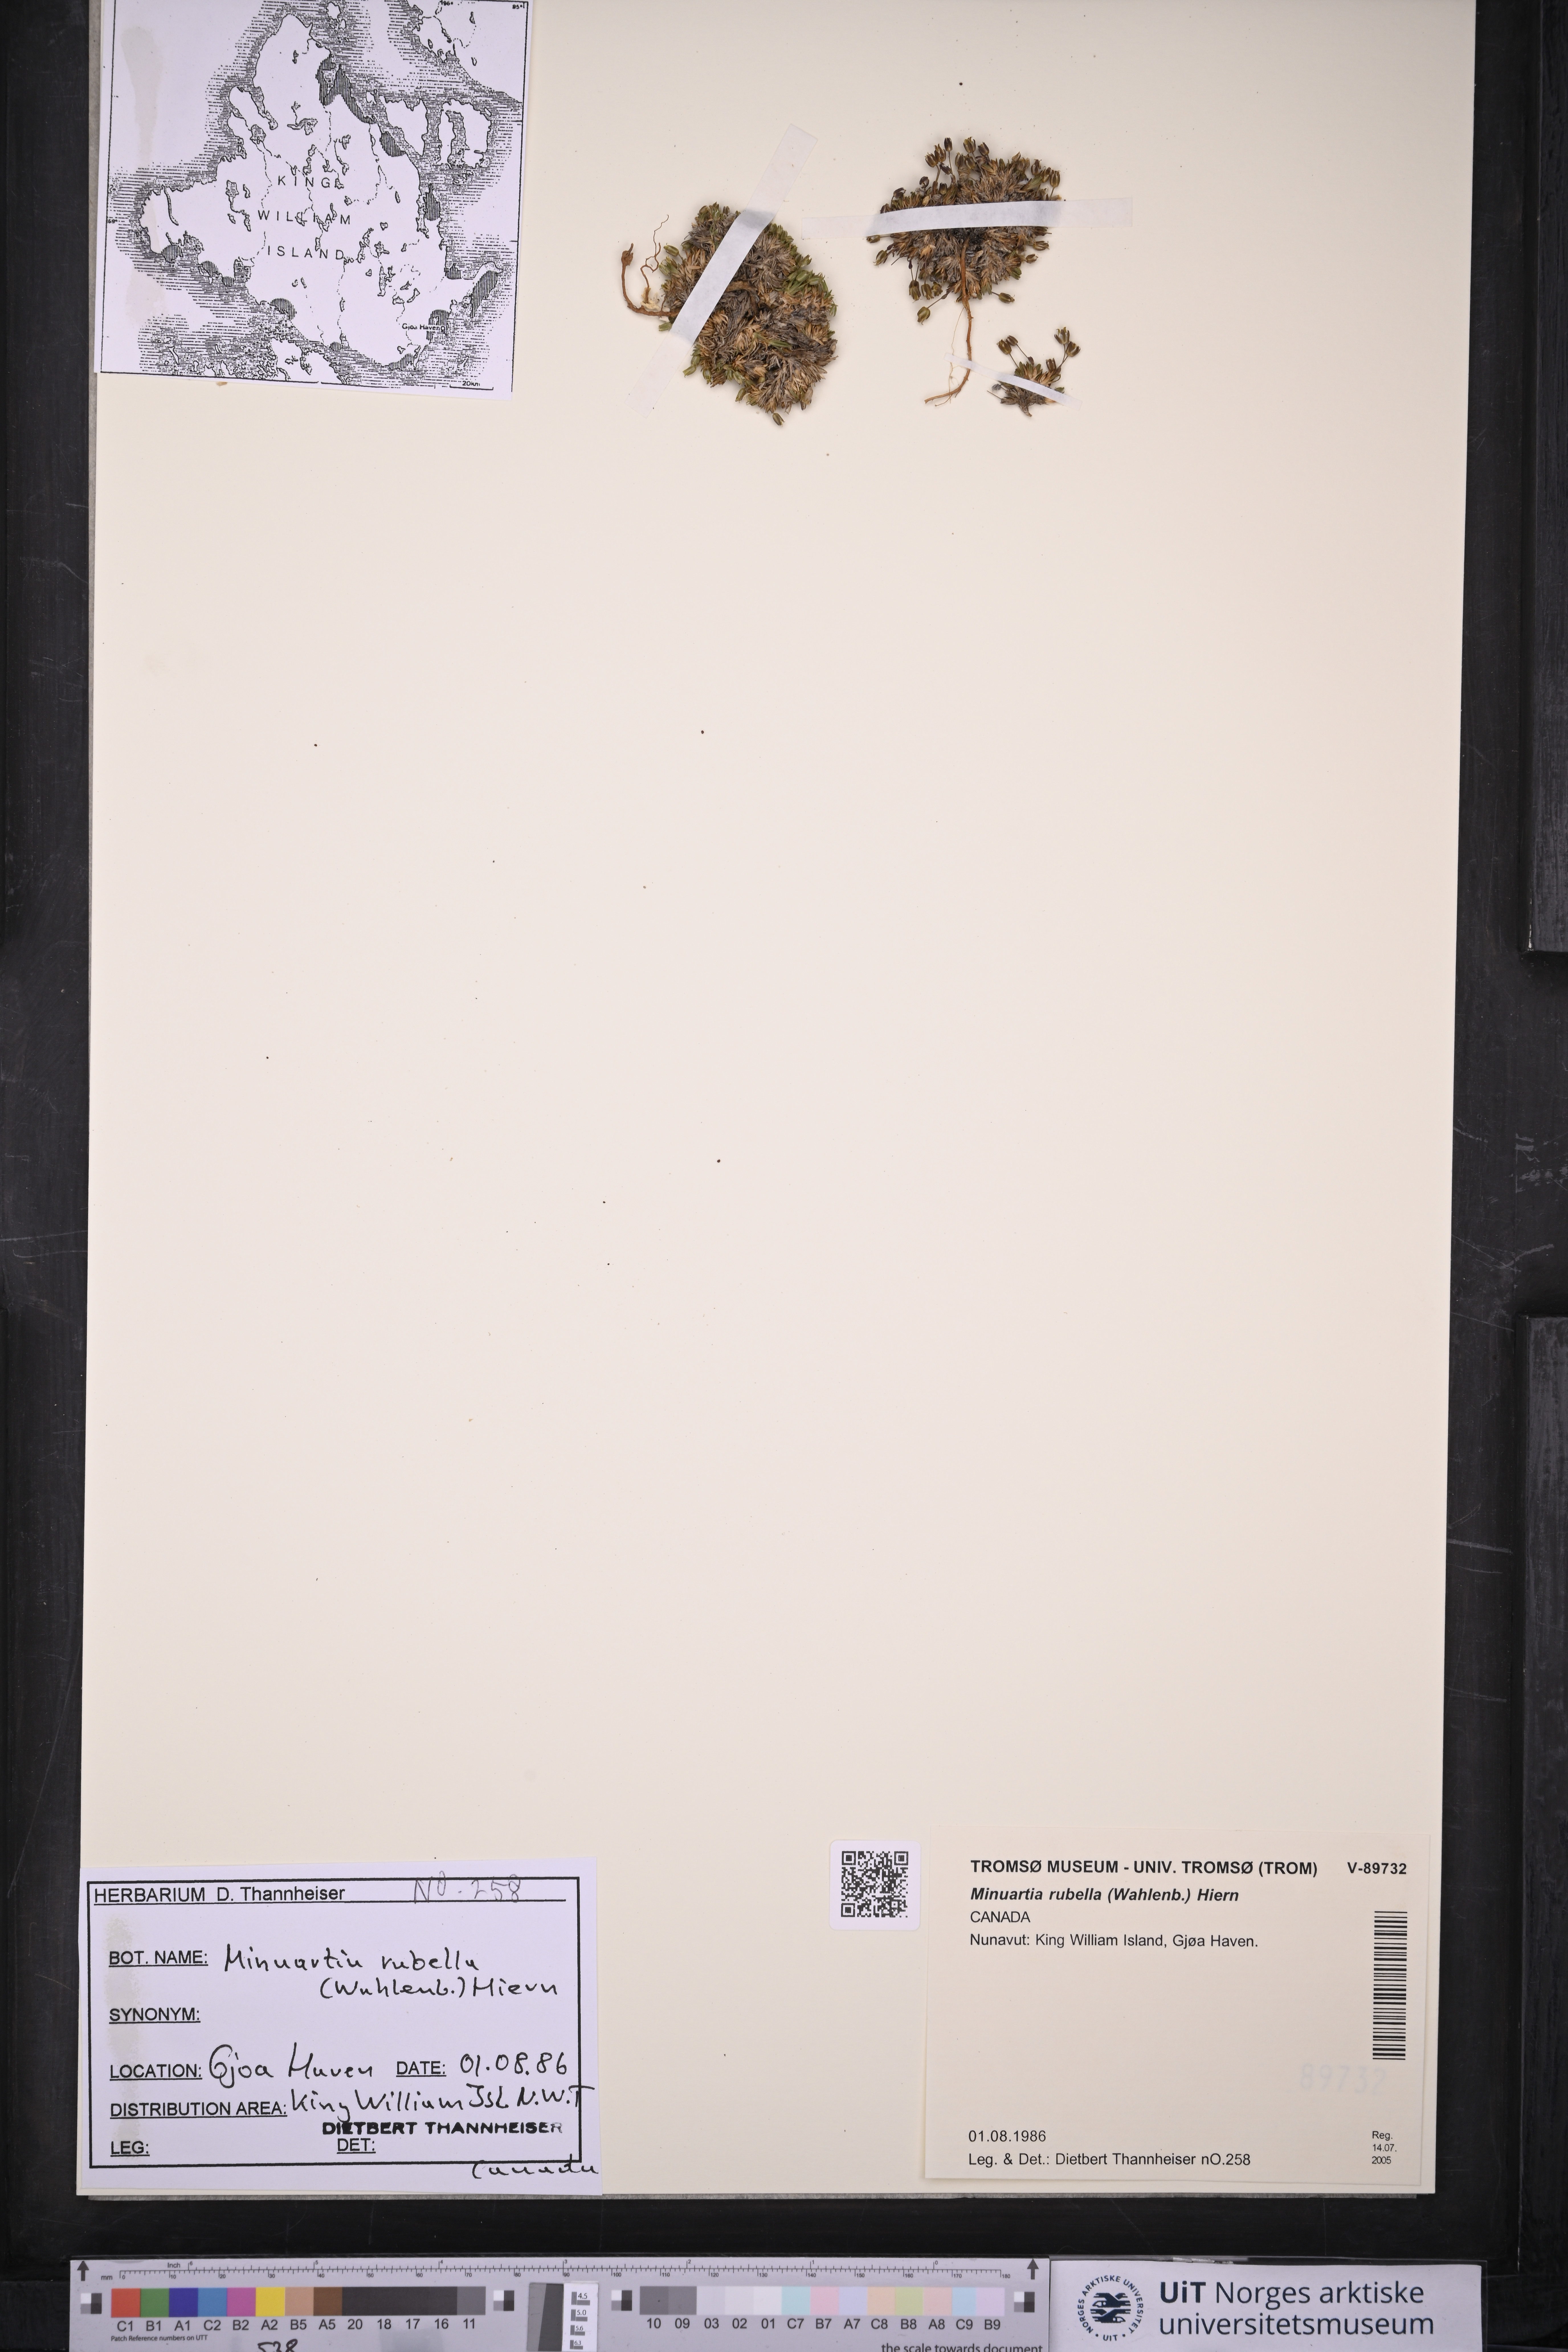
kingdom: Plantae
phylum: Tracheophyta
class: Magnoliopsida
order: Caryophyllales
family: Caryophyllaceae
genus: Sabulina
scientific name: Sabulina rubella
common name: Beautiful sandwort
